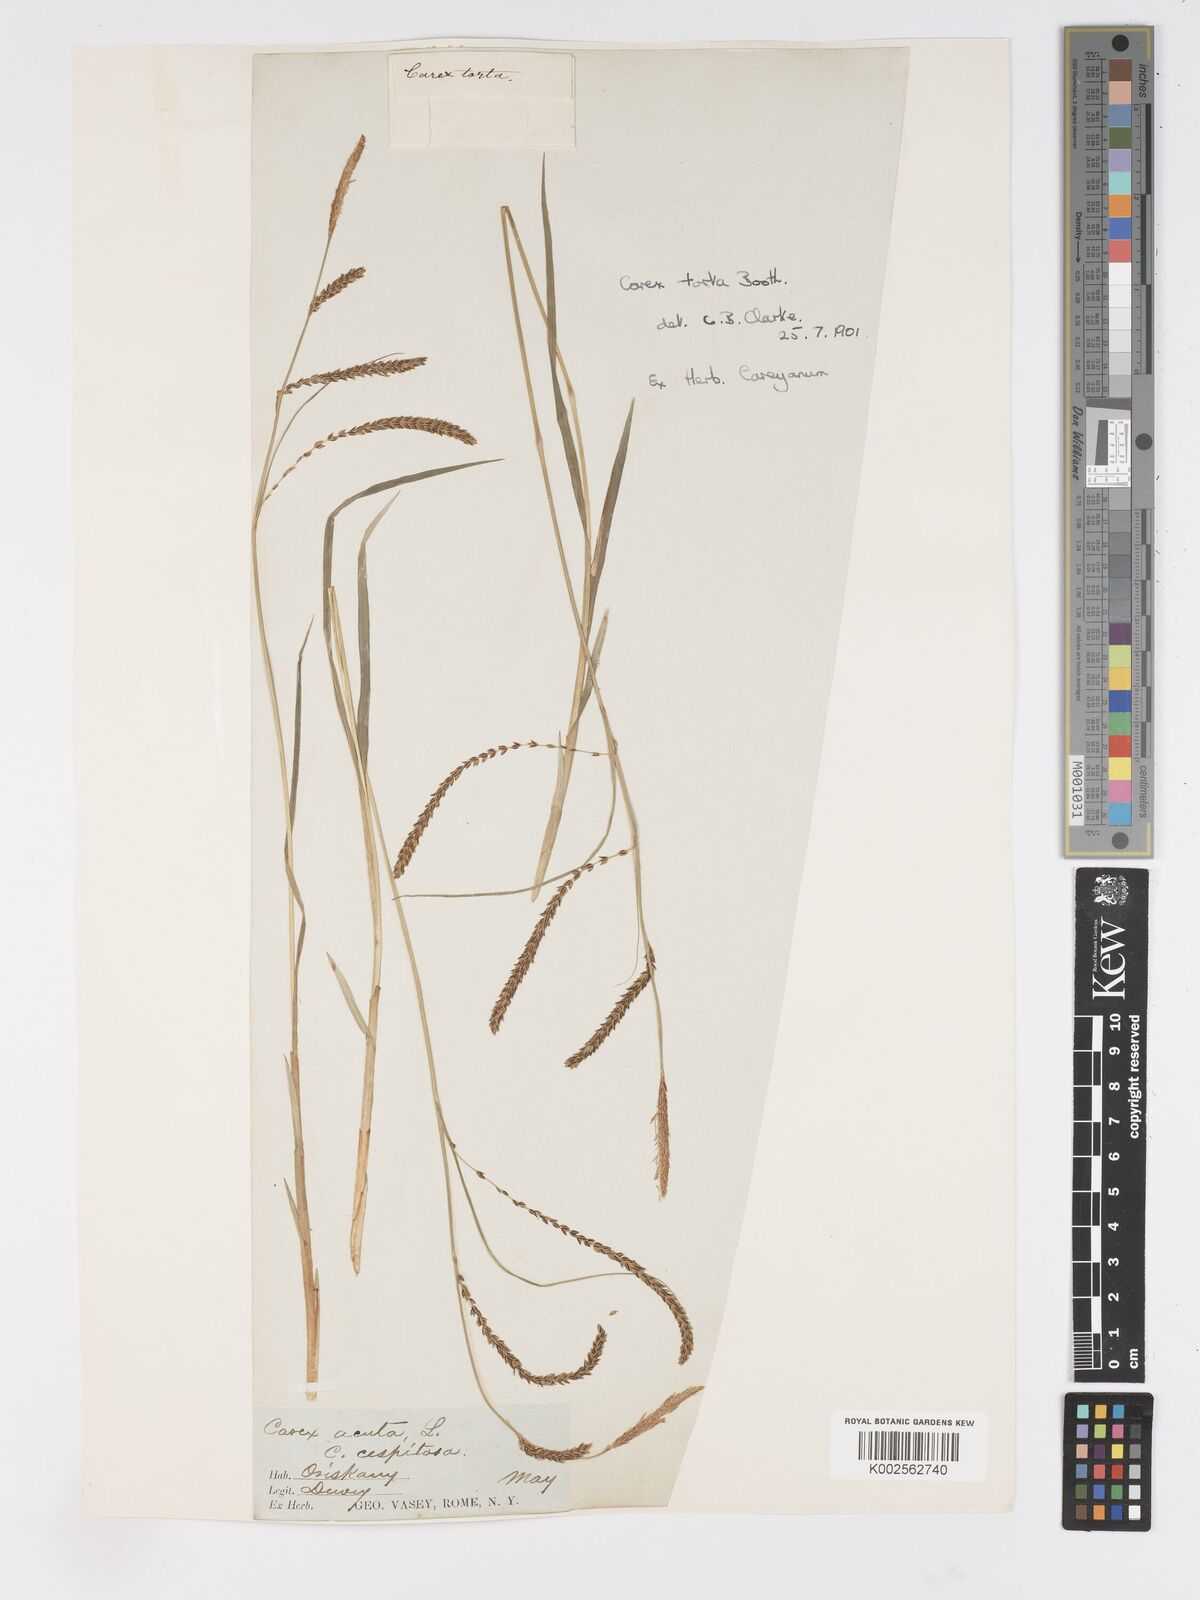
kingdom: Plantae
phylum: Tracheophyta
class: Liliopsida
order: Poales
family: Cyperaceae
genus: Carex
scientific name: Carex torta
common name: Twisted sedge
